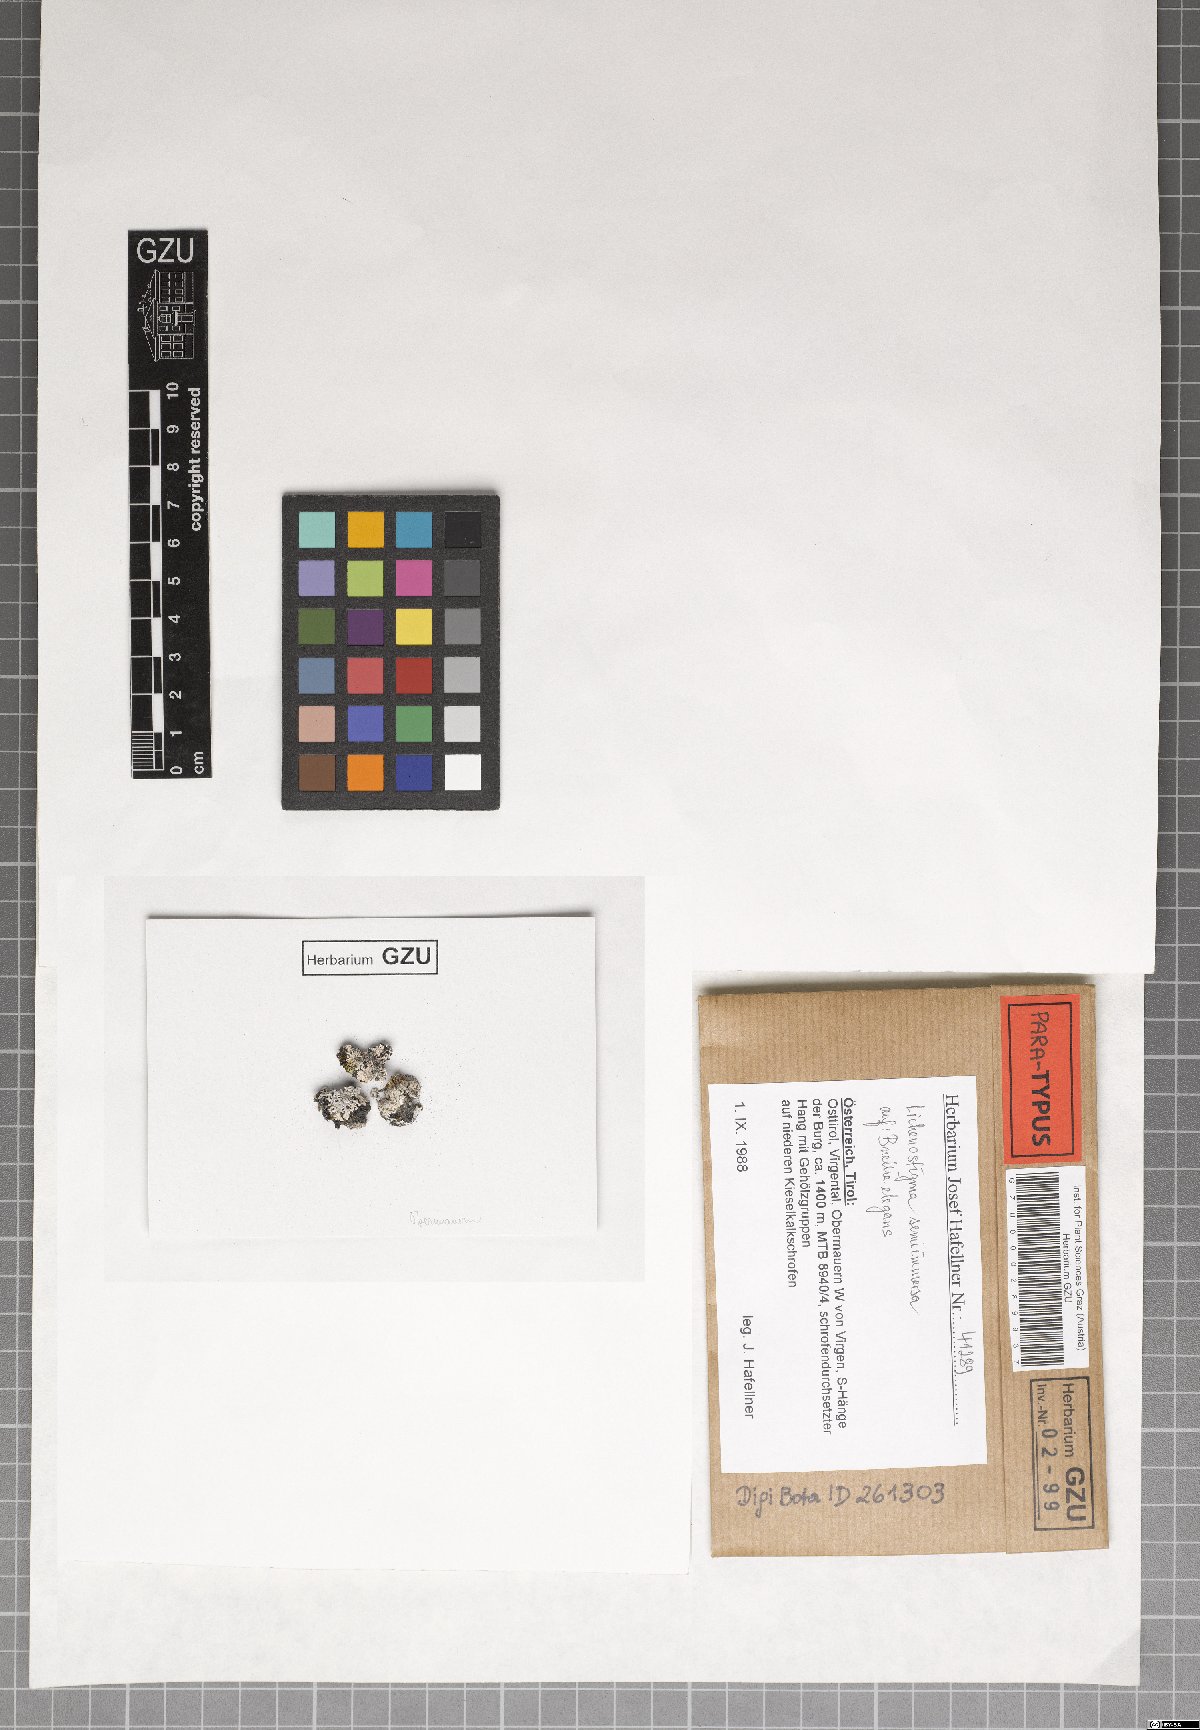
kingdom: Fungi
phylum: Ascomycota
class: Dothideomycetes
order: Lichenotheliales
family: Lichenotheliaceae
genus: Lichenostigma
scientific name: Lichenostigma semi-immersum
